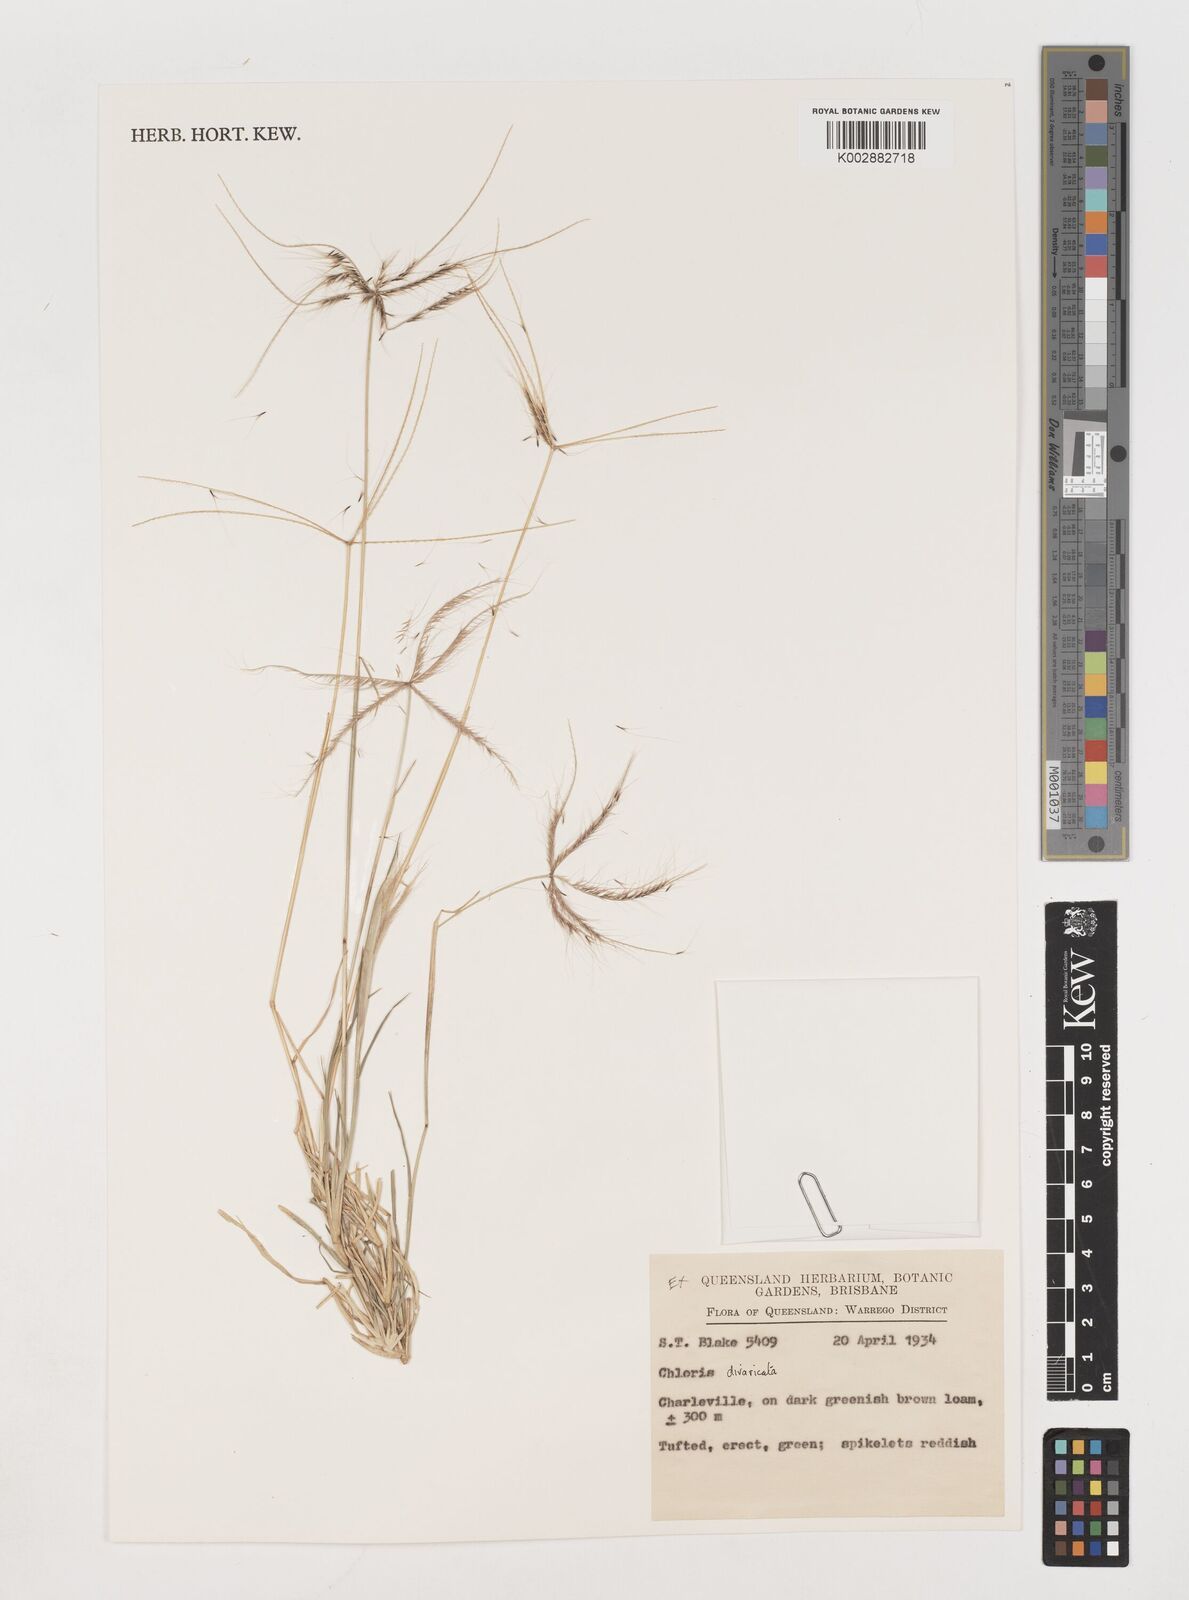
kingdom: Plantae
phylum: Tracheophyta
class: Liliopsida
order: Poales
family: Poaceae
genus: Chloris
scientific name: Chloris divaricata
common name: Spreading windmill grass
